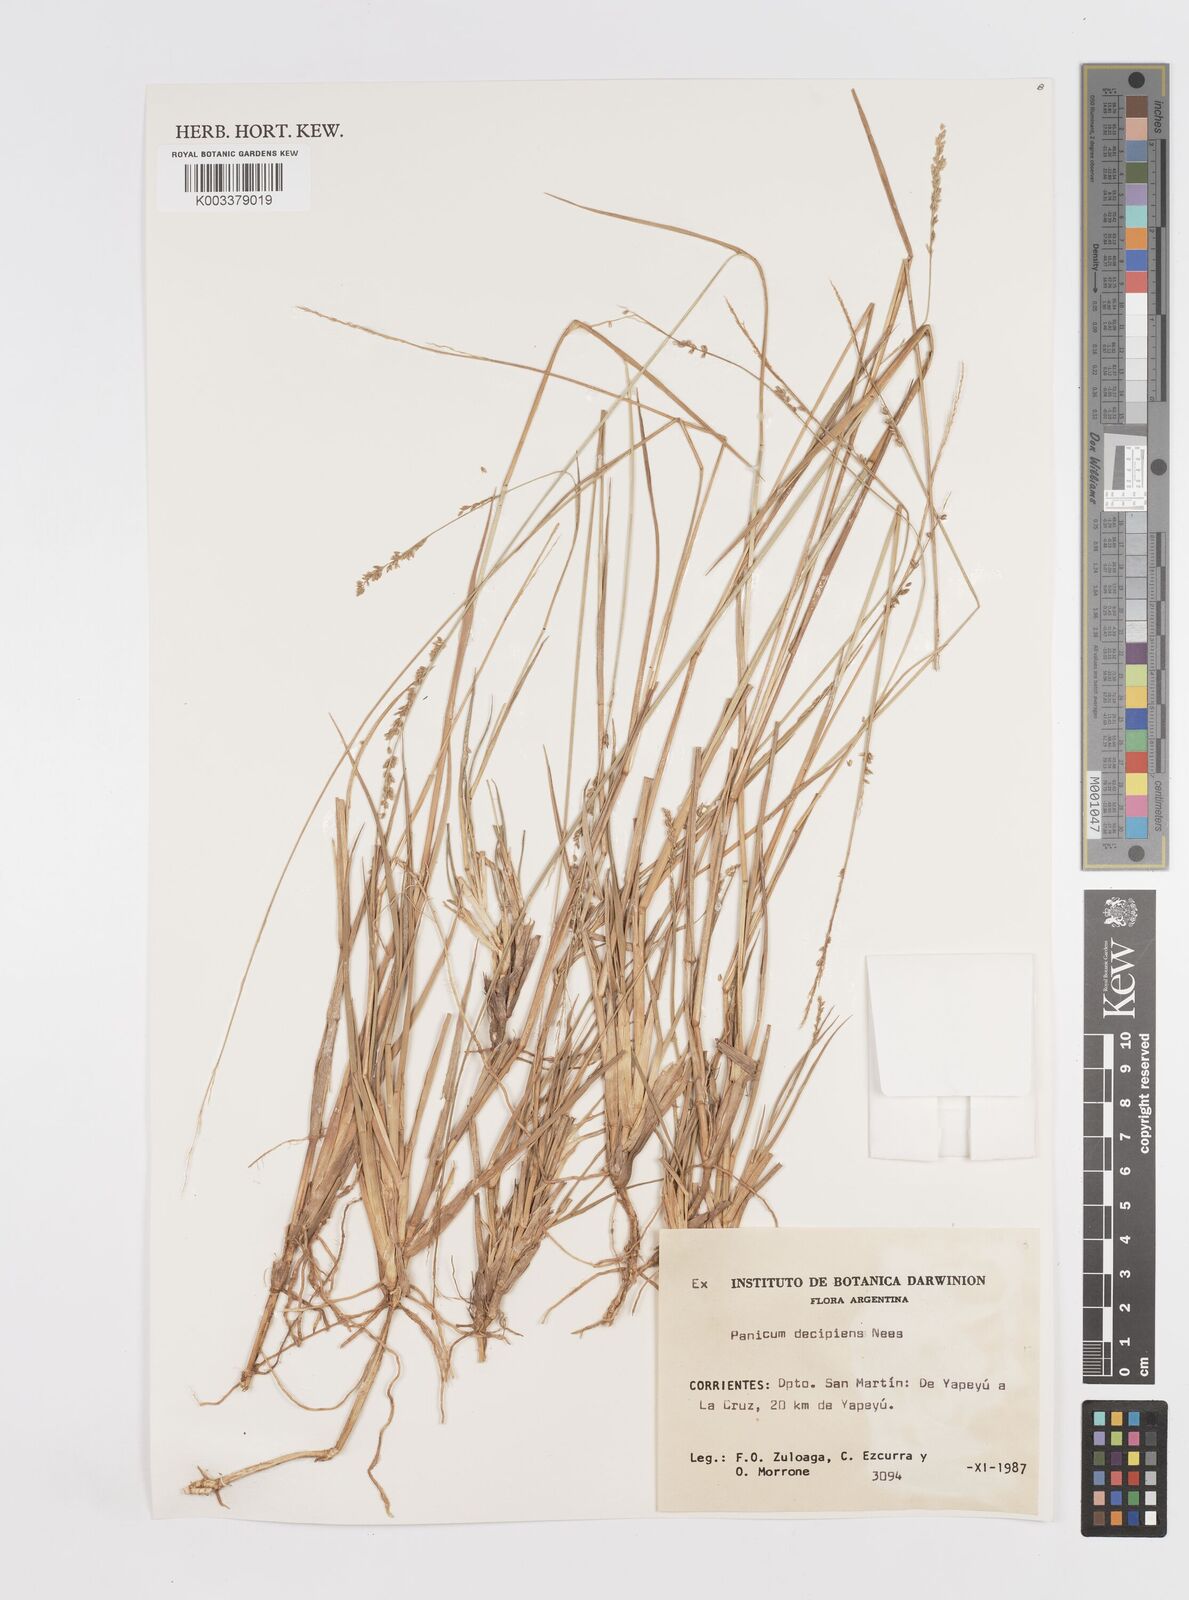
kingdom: Plantae
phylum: Tracheophyta
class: Liliopsida
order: Poales
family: Poaceae
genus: Steinchisma
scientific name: Steinchisma decipiens
